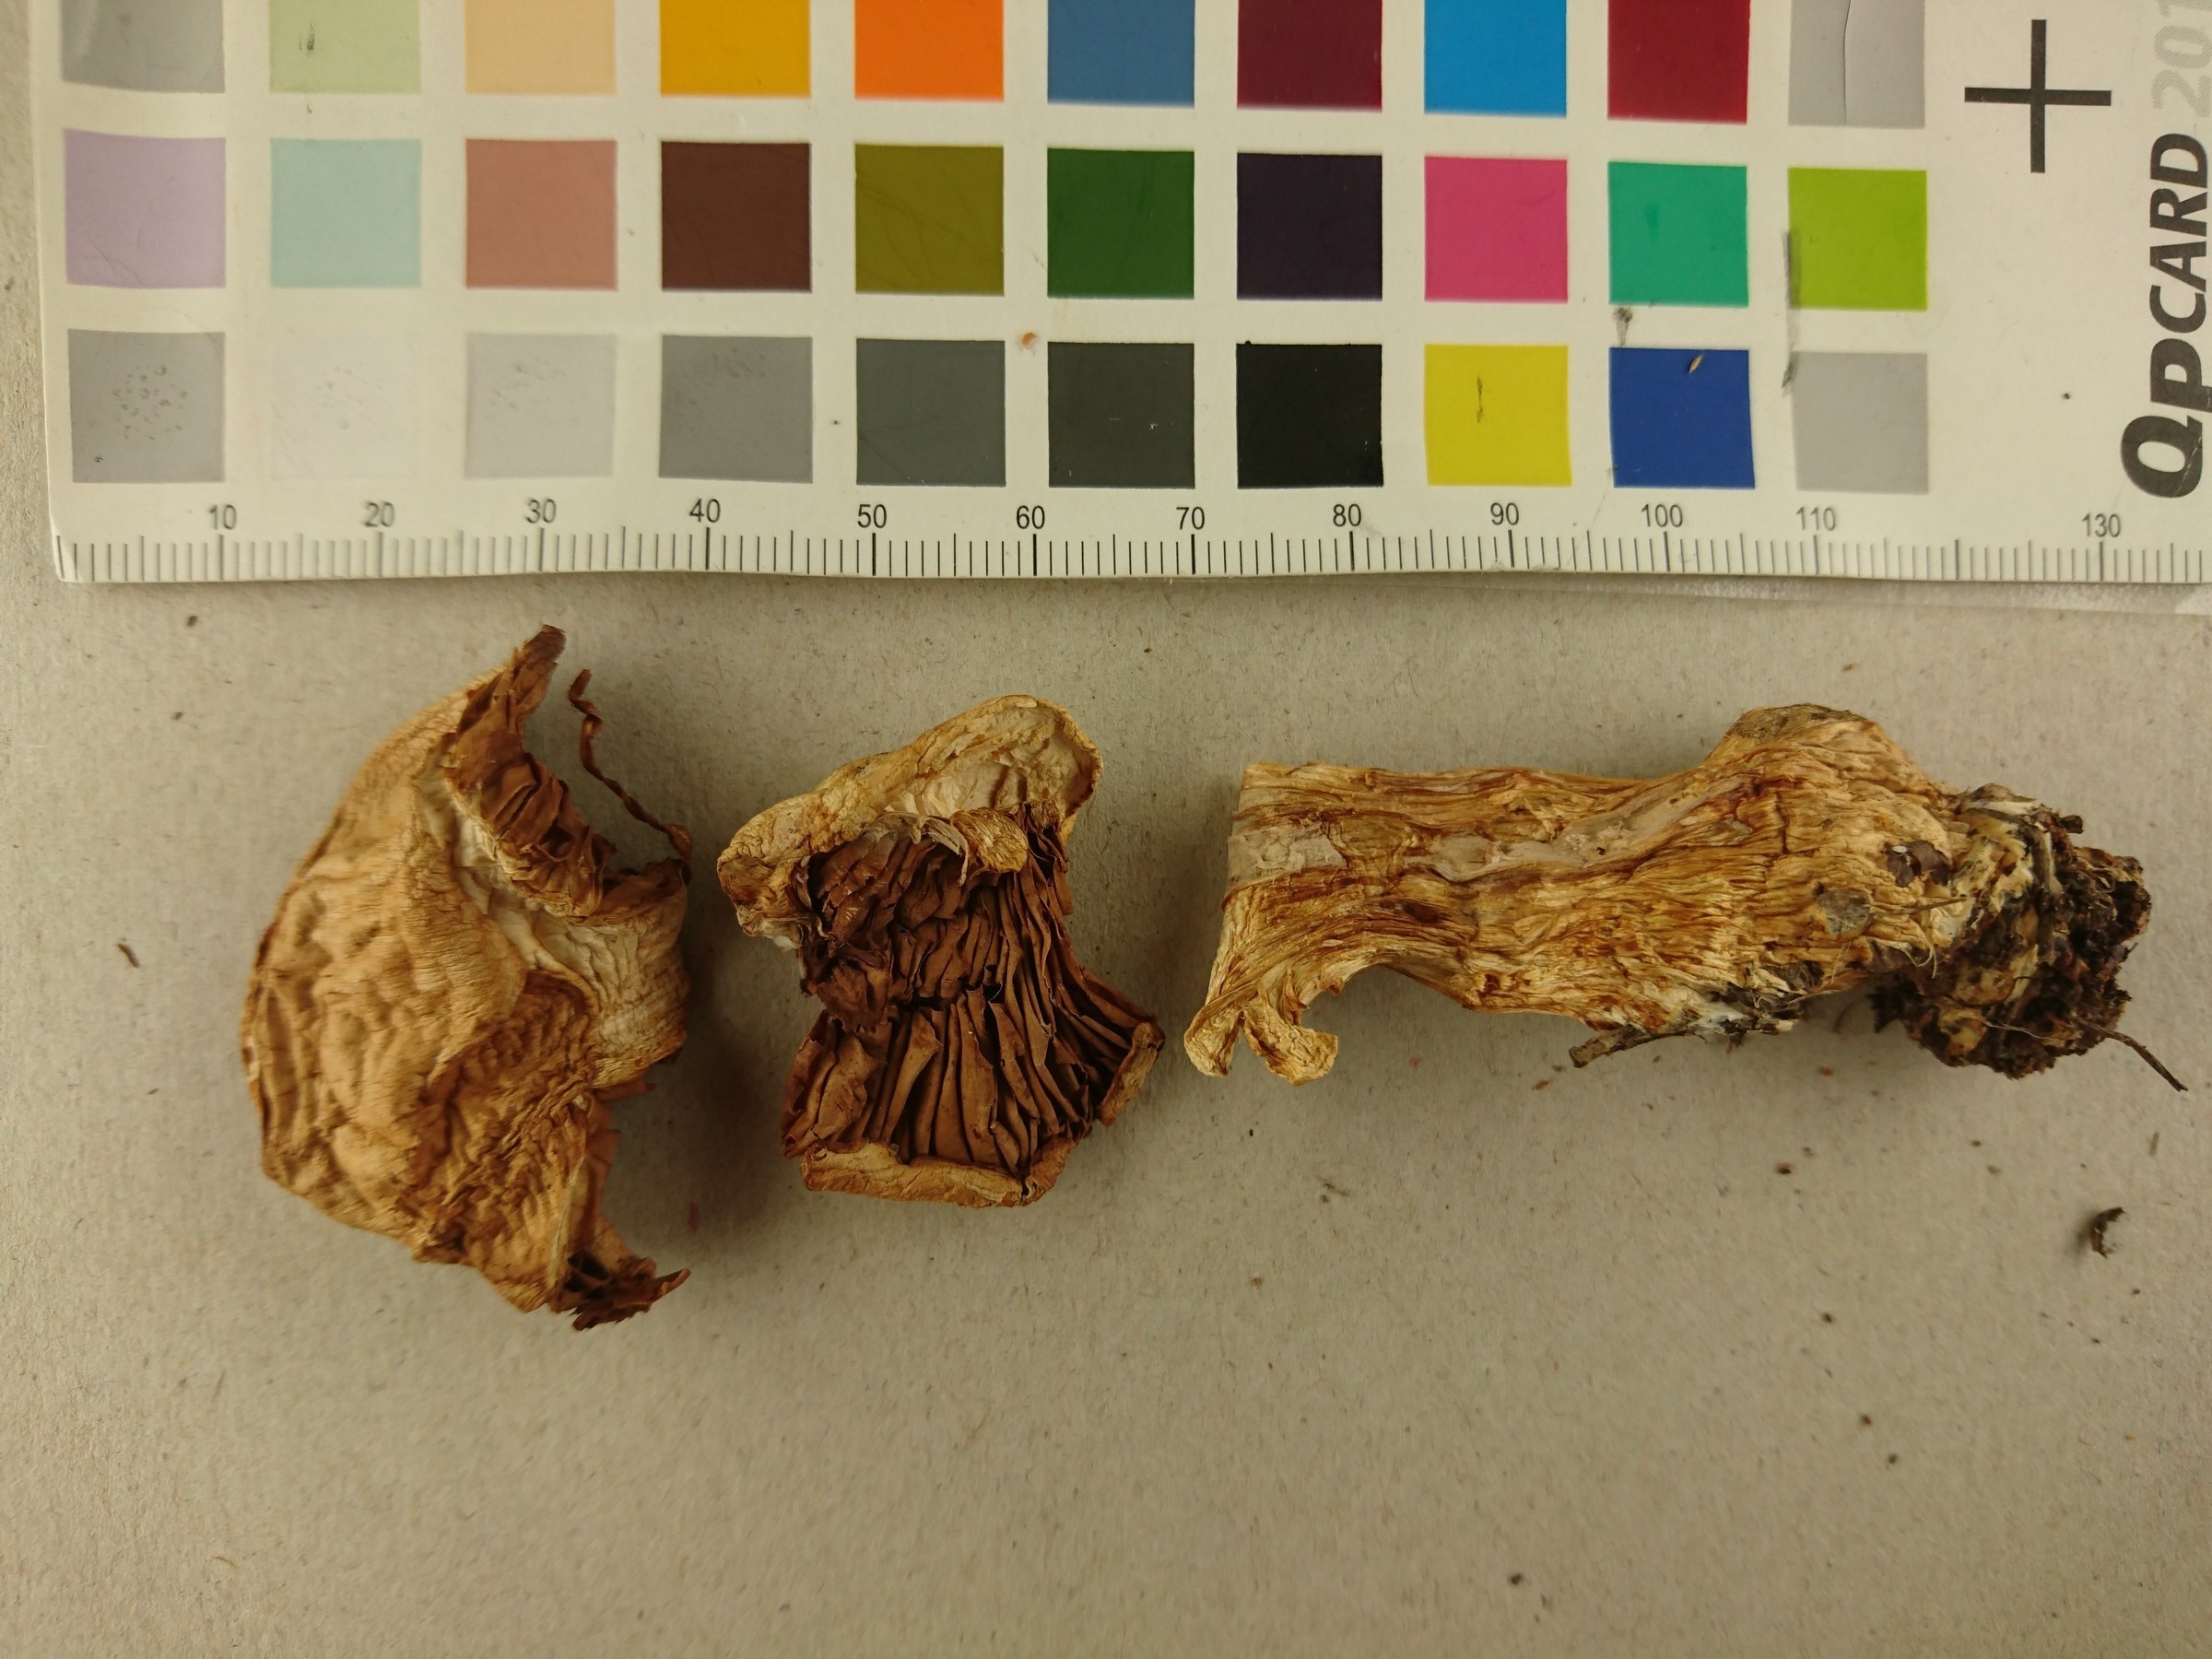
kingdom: Fungi
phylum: Basidiomycota
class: Agaricomycetes
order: Agaricales
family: Cortinariaceae
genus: Cortinarius
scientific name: Cortinarius badiolatus
